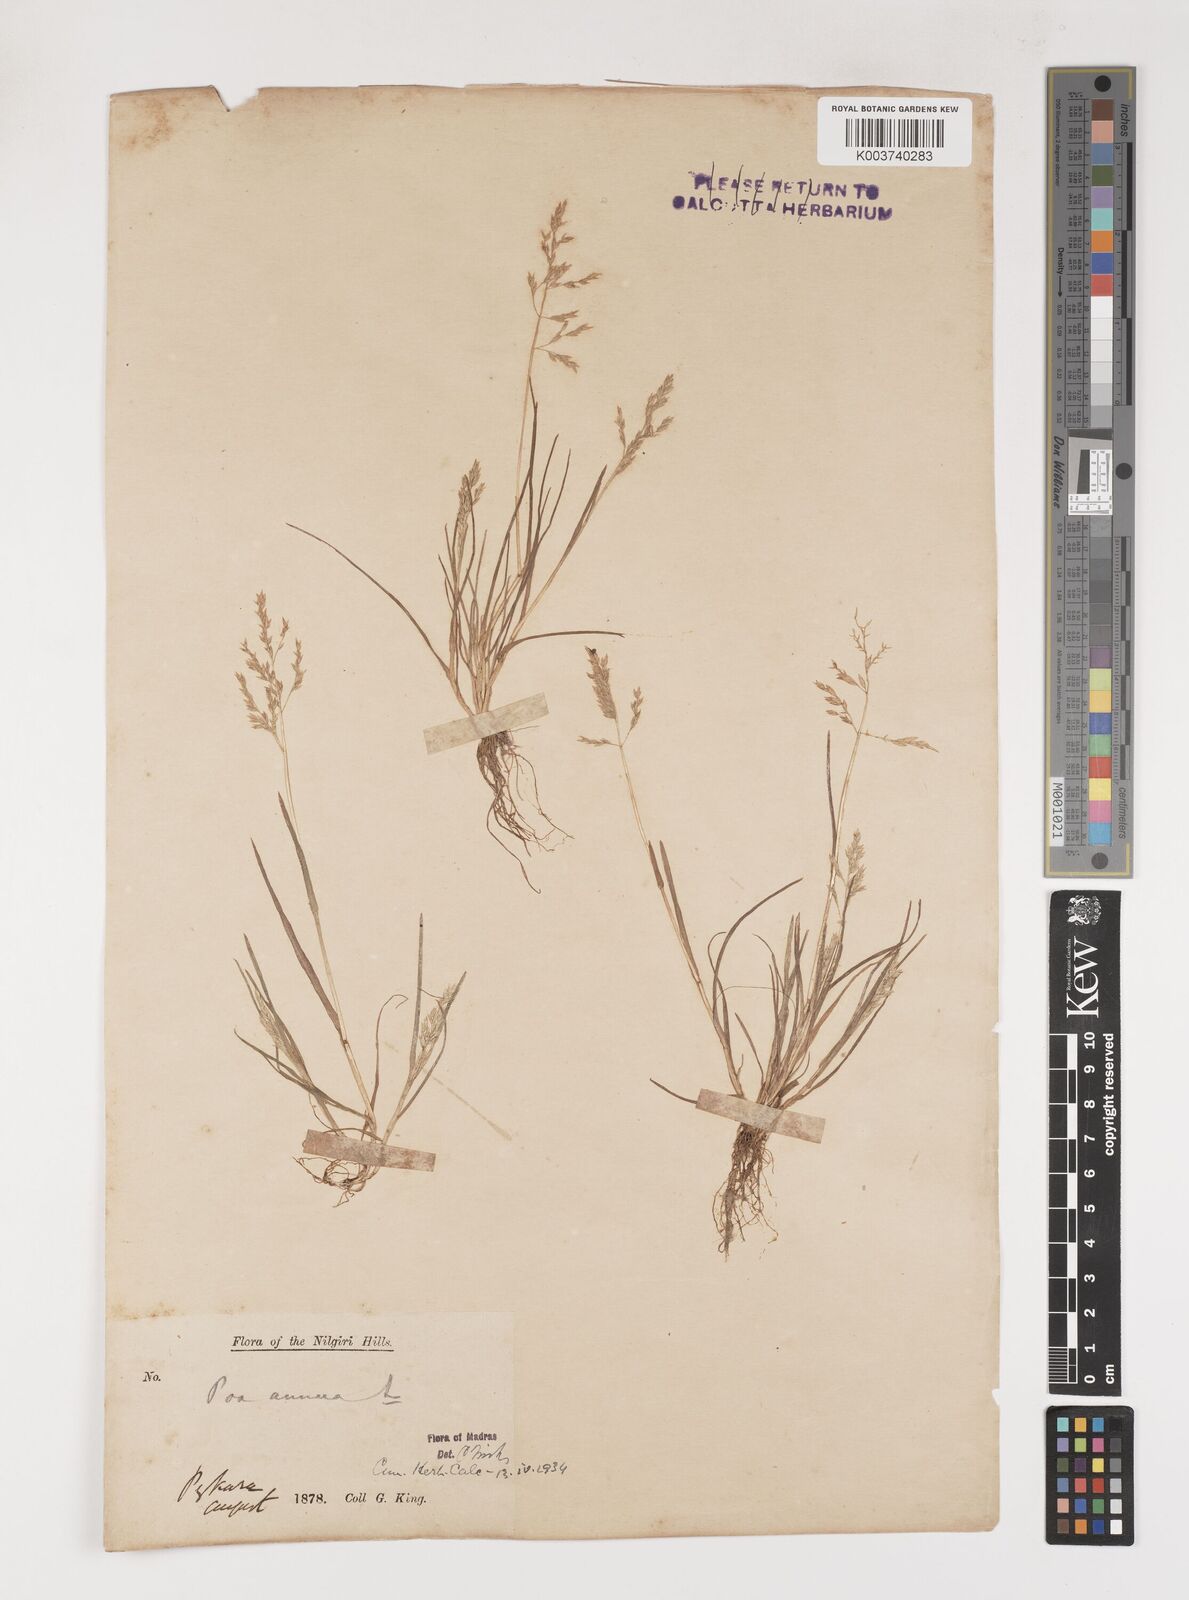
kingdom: Plantae
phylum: Tracheophyta
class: Liliopsida
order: Poales
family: Poaceae
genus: Poa
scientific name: Poa annua
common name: Annual bluegrass
